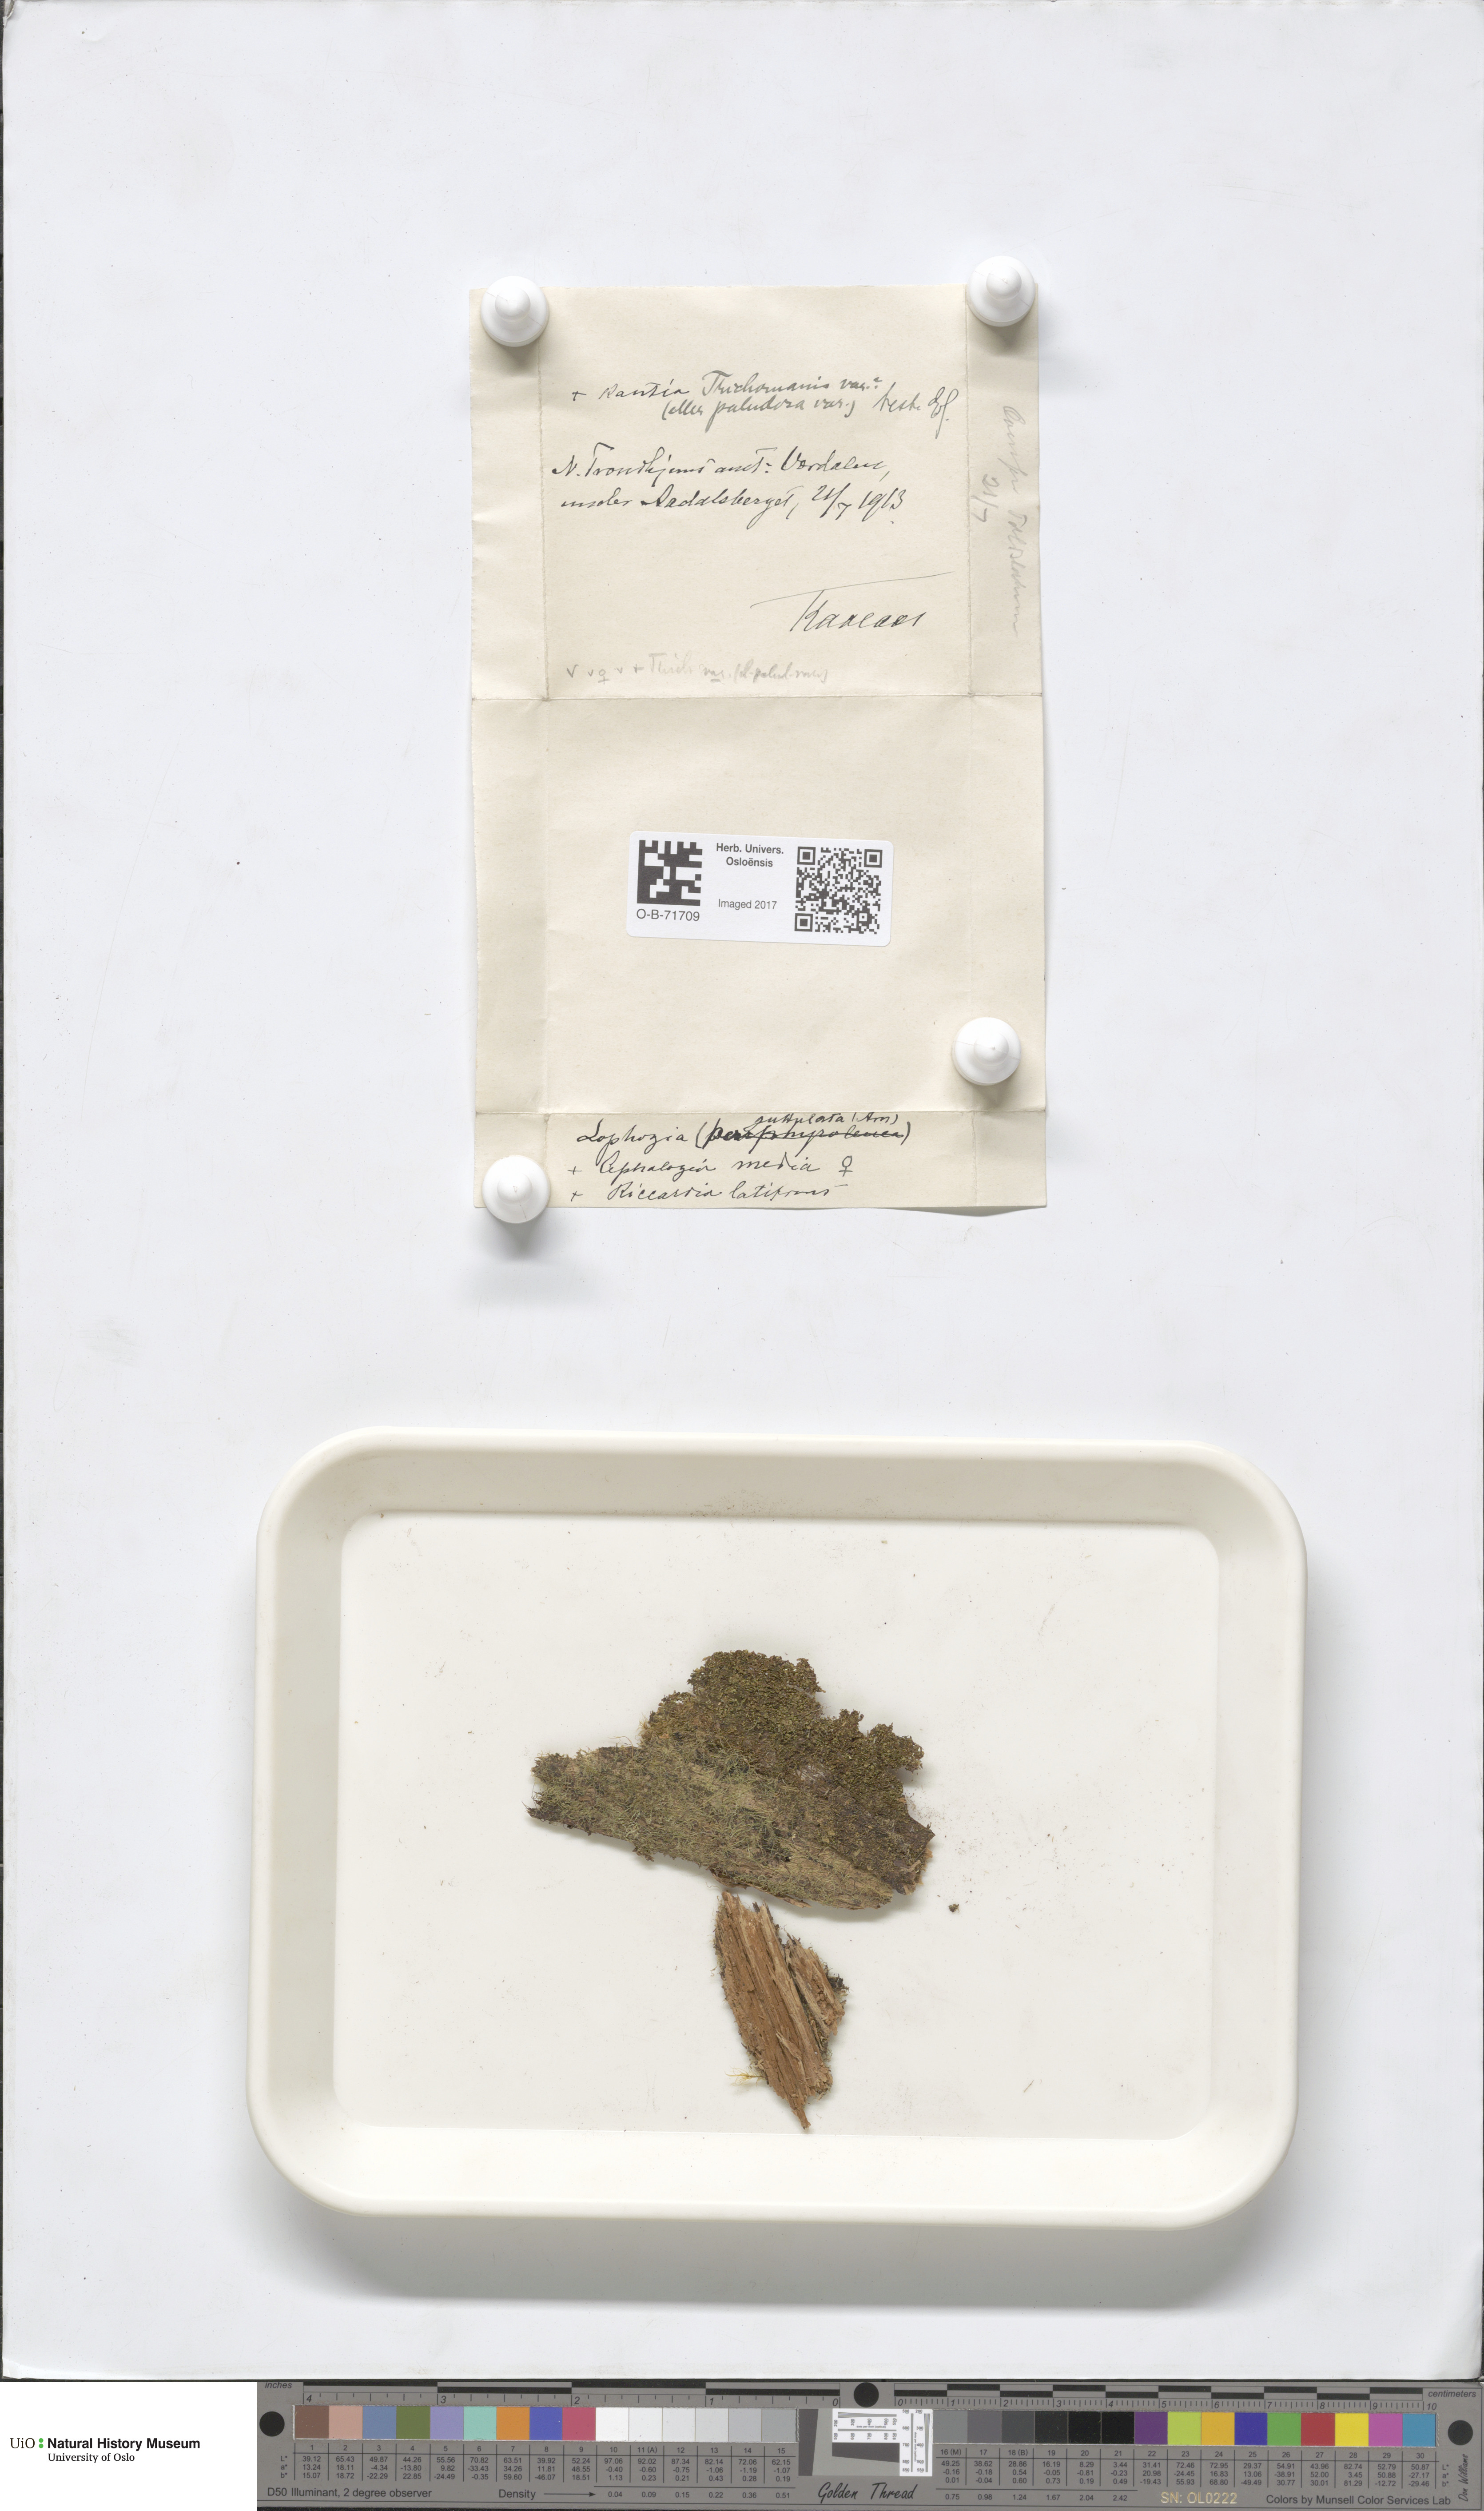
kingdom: Plantae
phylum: Marchantiophyta
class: Jungermanniopsida
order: Jungermanniales
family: Cephaloziaceae
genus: Fuscocephaloziopsis
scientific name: Fuscocephaloziopsis lunulifolia
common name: Moon-leaved pincerwort
